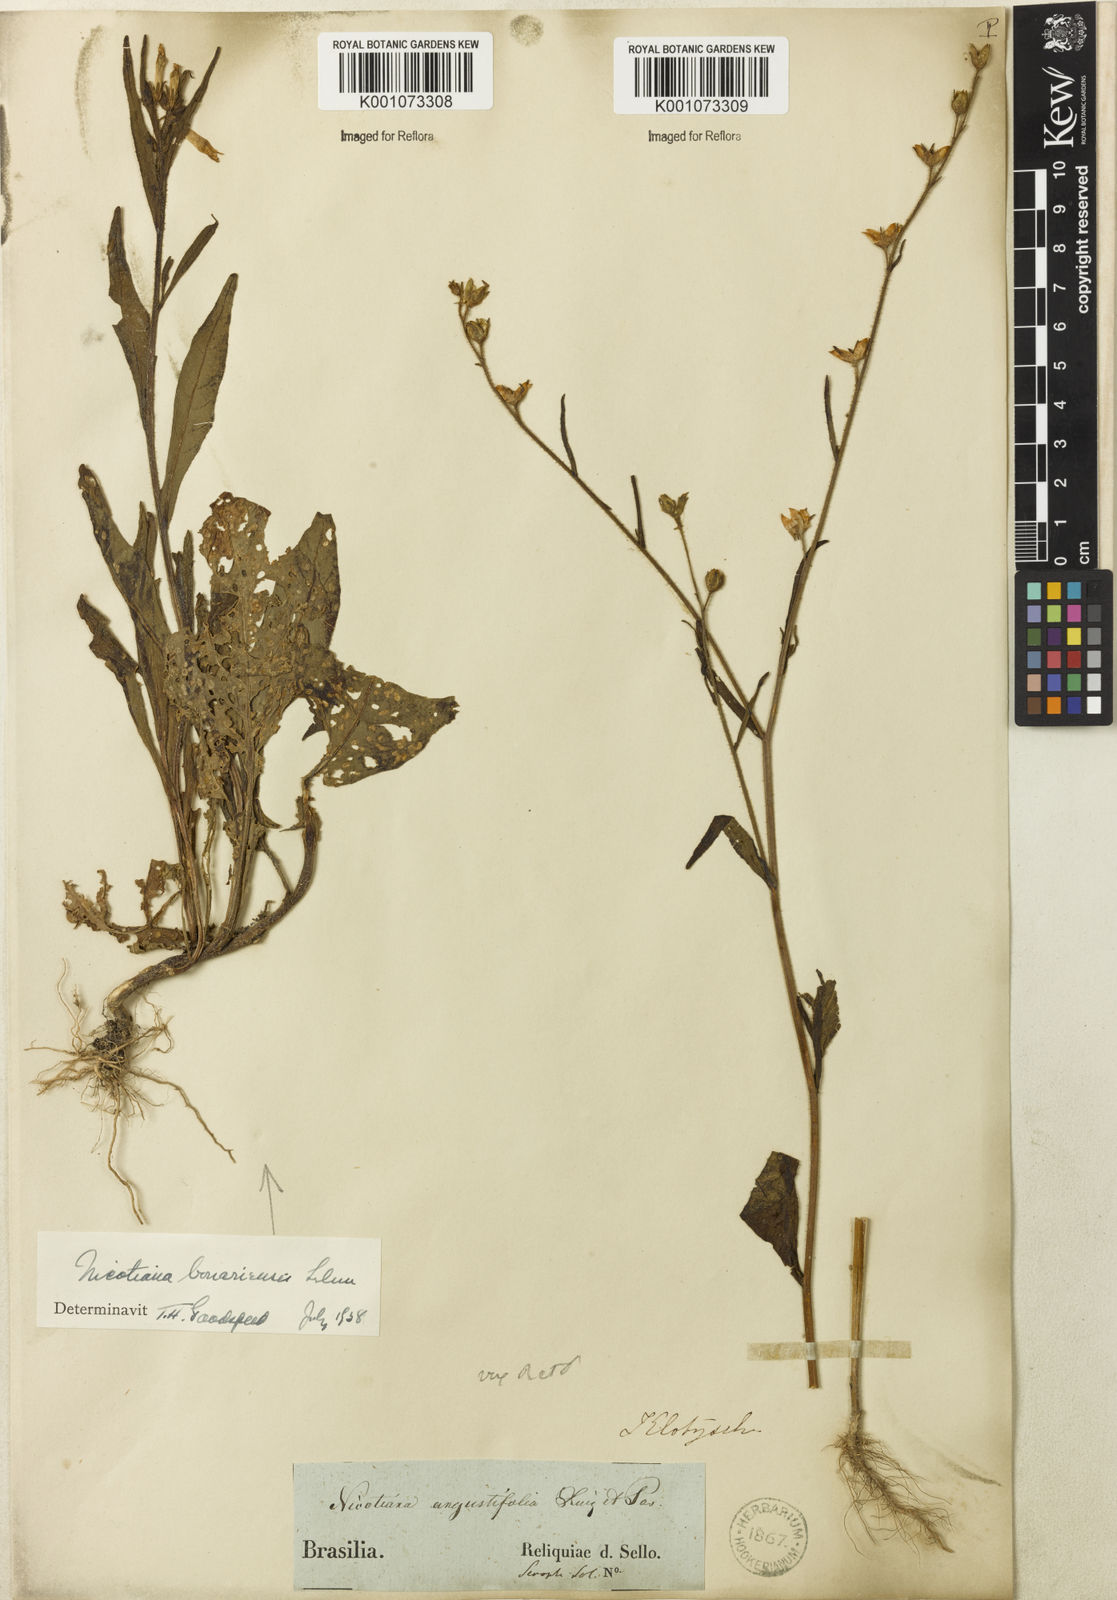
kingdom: Plantae
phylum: Tracheophyta
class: Magnoliopsida
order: Solanales
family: Solanaceae
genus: Nicotiana
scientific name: Nicotiana acuminata
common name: Manyflower tobacco
